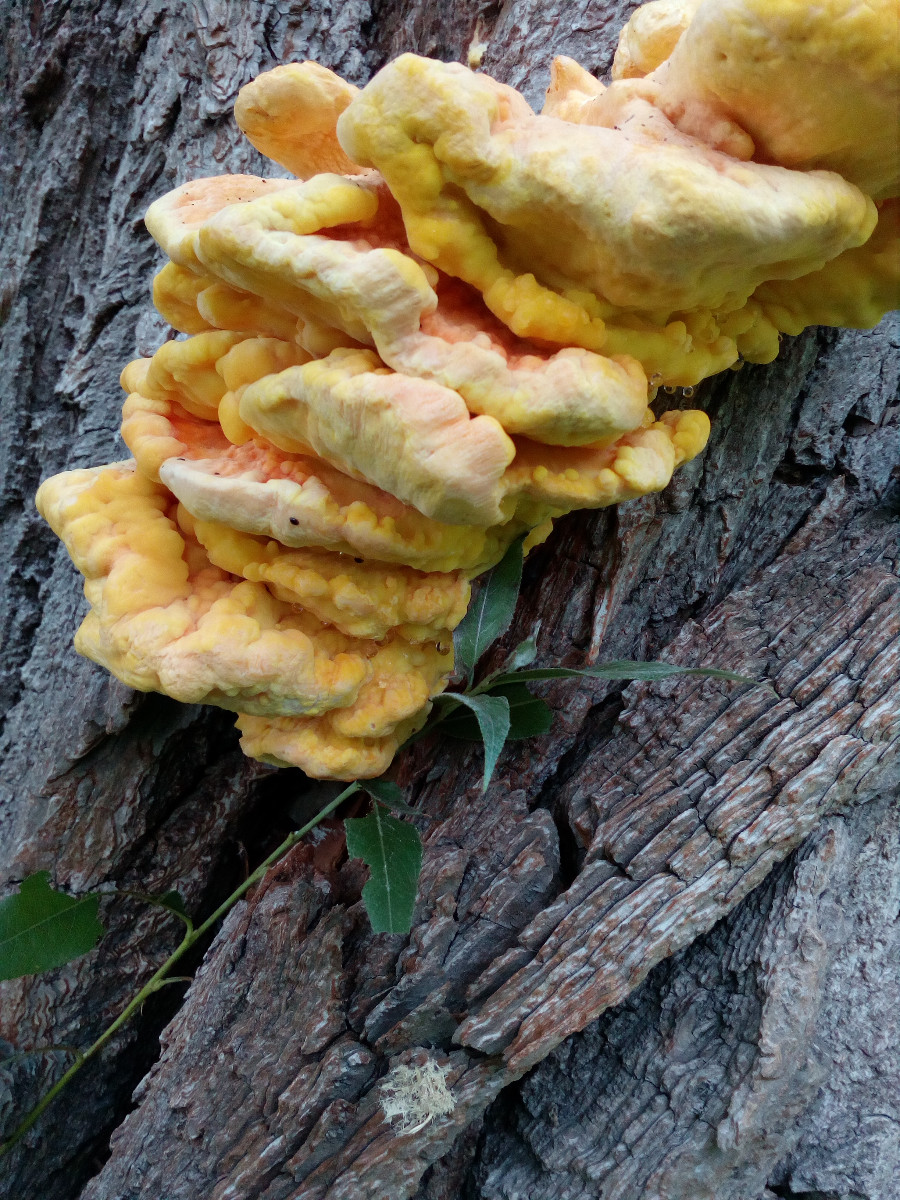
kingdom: Fungi
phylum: Basidiomycota
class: Agaricomycetes
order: Polyporales
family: Laetiporaceae
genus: Laetiporus
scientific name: Laetiporus sulphureus
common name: svovlporesvamp
